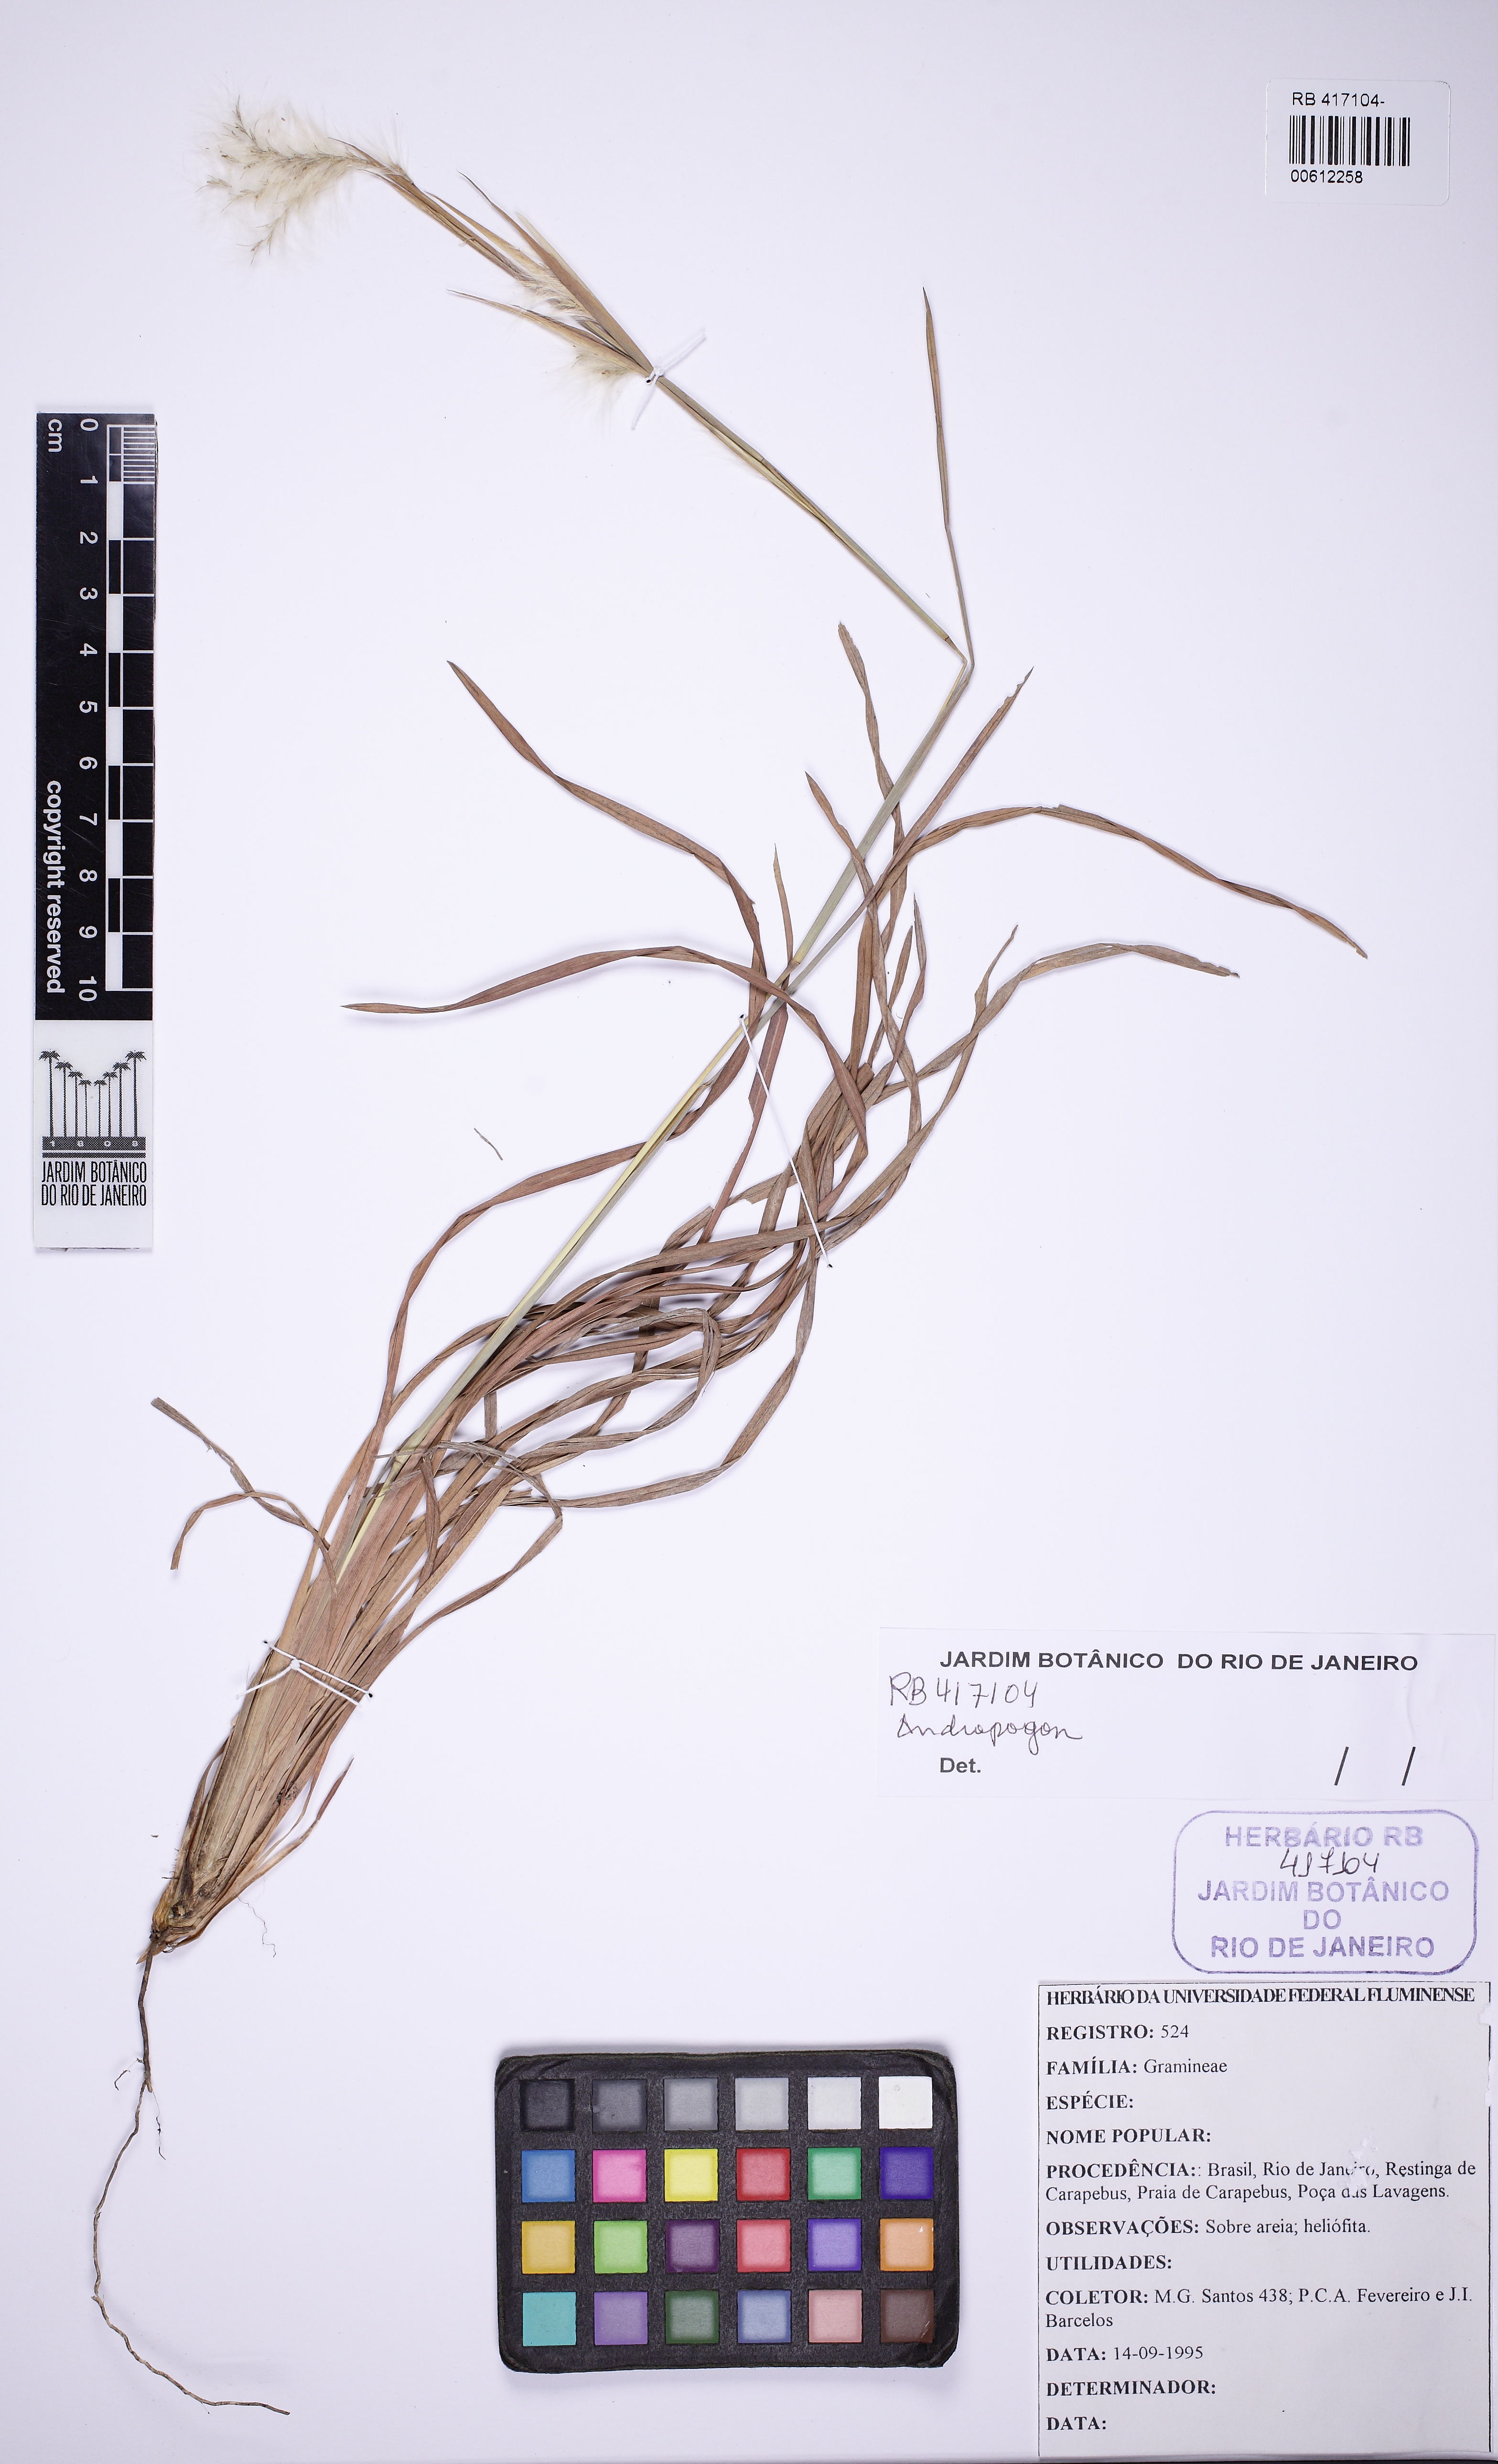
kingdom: Plantae
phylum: Tracheophyta
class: Liliopsida
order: Poales
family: Poaceae
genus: Andropogon
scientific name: Andropogon
